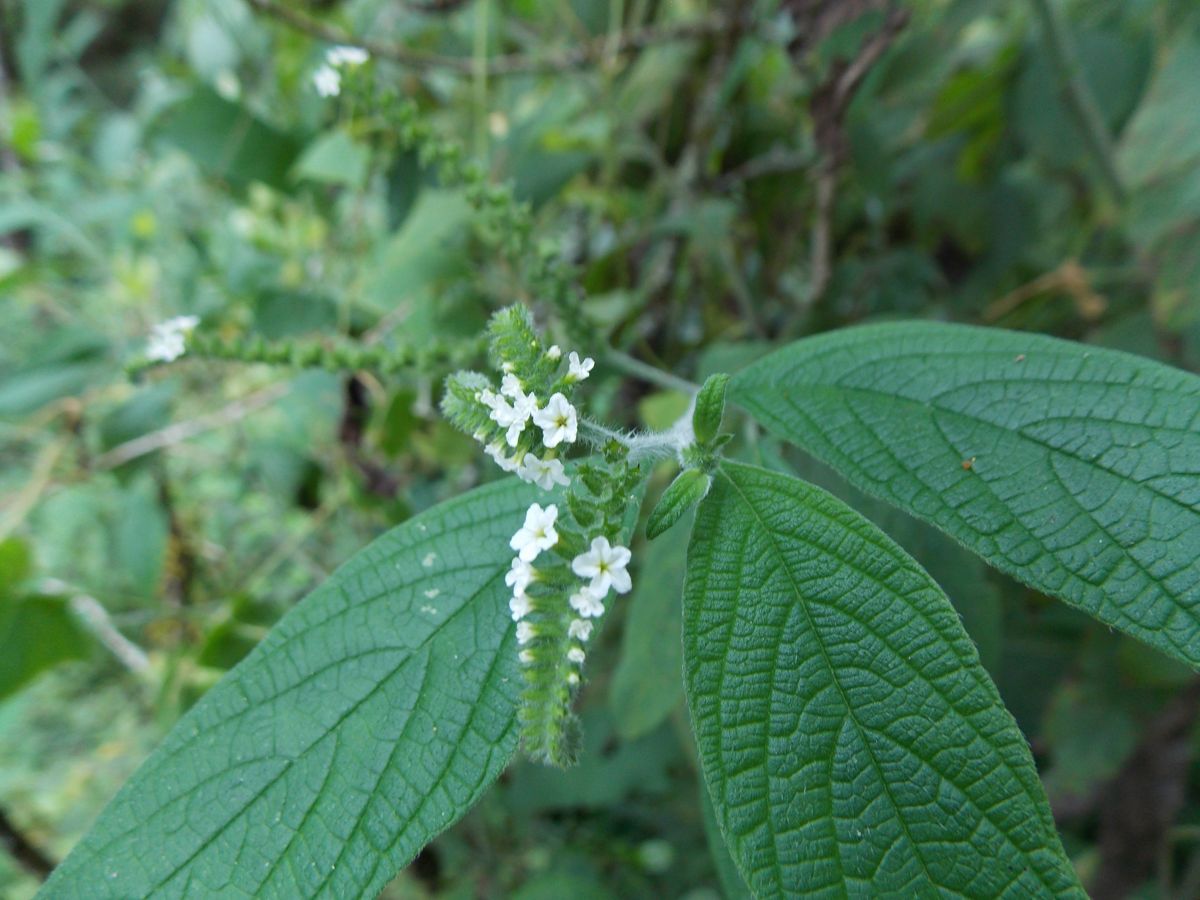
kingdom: Plantae
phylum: Tracheophyta
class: Magnoliopsida
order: Boraginales
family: Heliotropiaceae
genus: Heliotropium
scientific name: Heliotropium rufipilum
